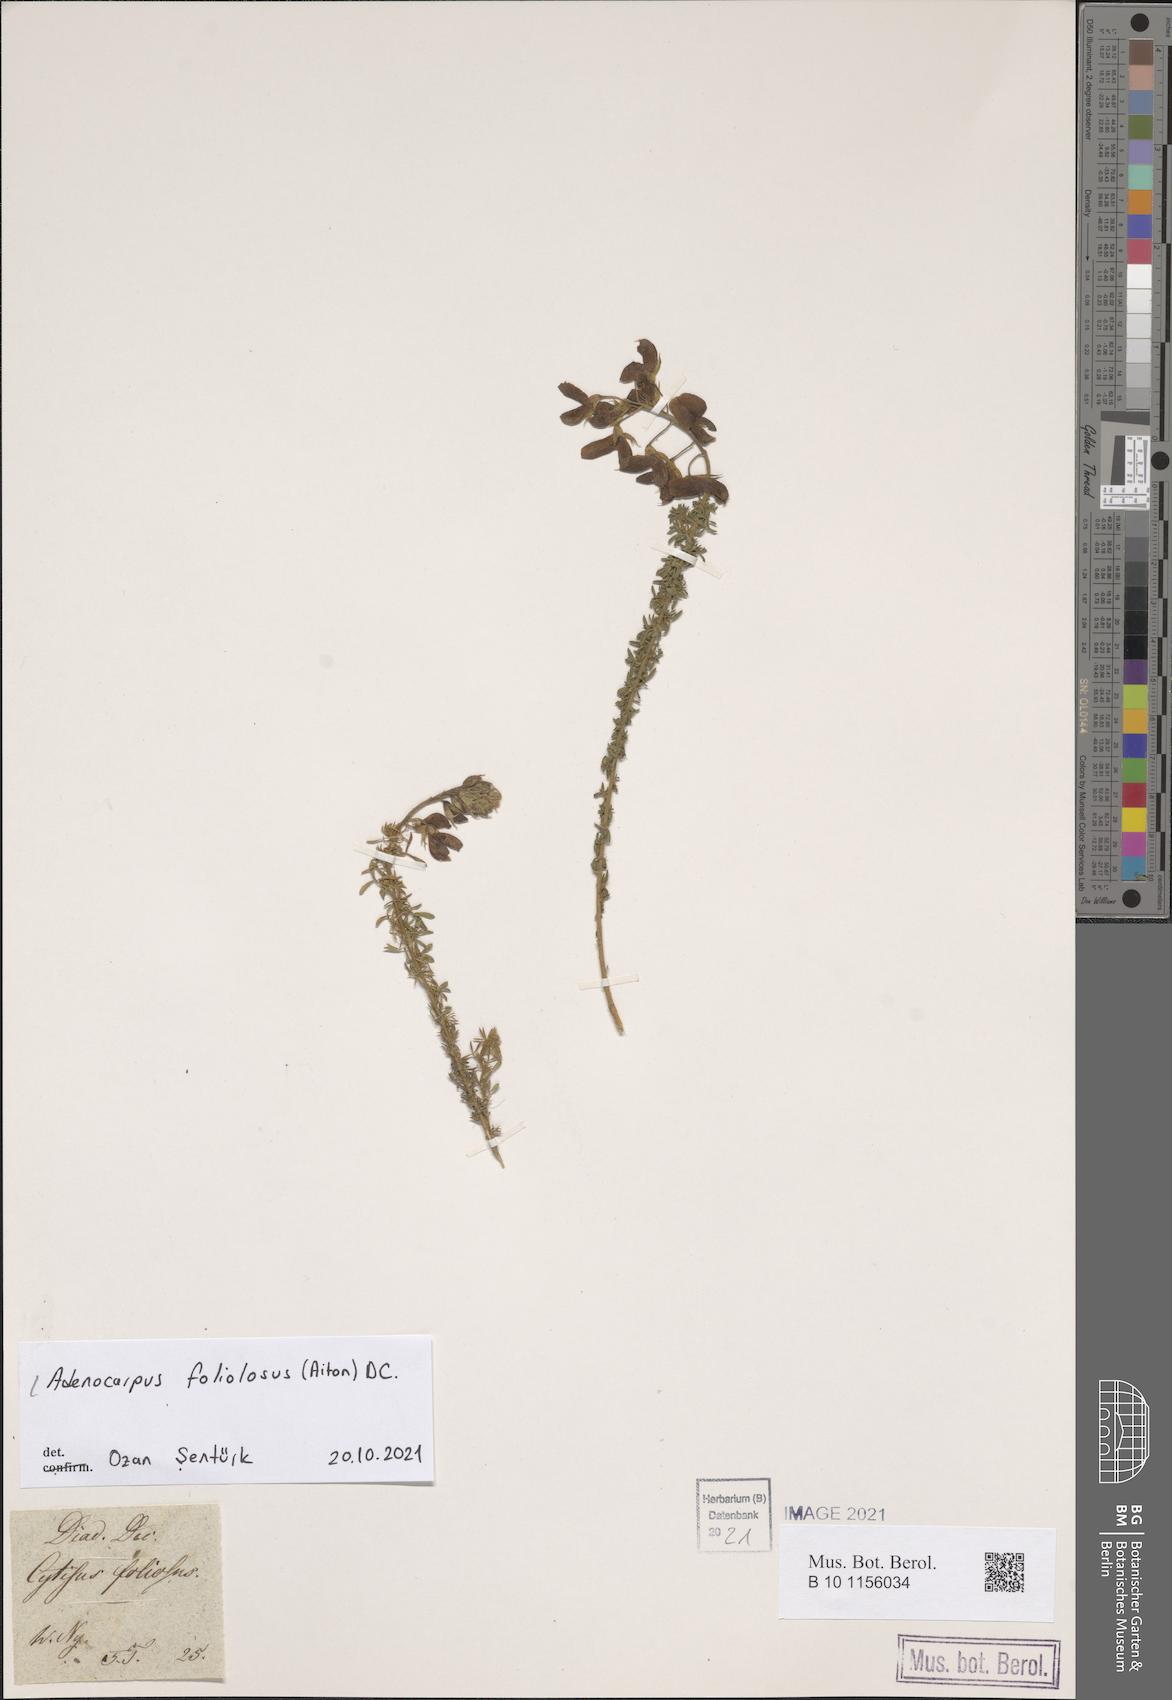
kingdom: Plantae
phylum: Tracheophyta
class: Magnoliopsida
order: Fabales
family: Fabaceae
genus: Adenocarpus
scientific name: Adenocarpus foliolosus
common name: Canary island flatpod
